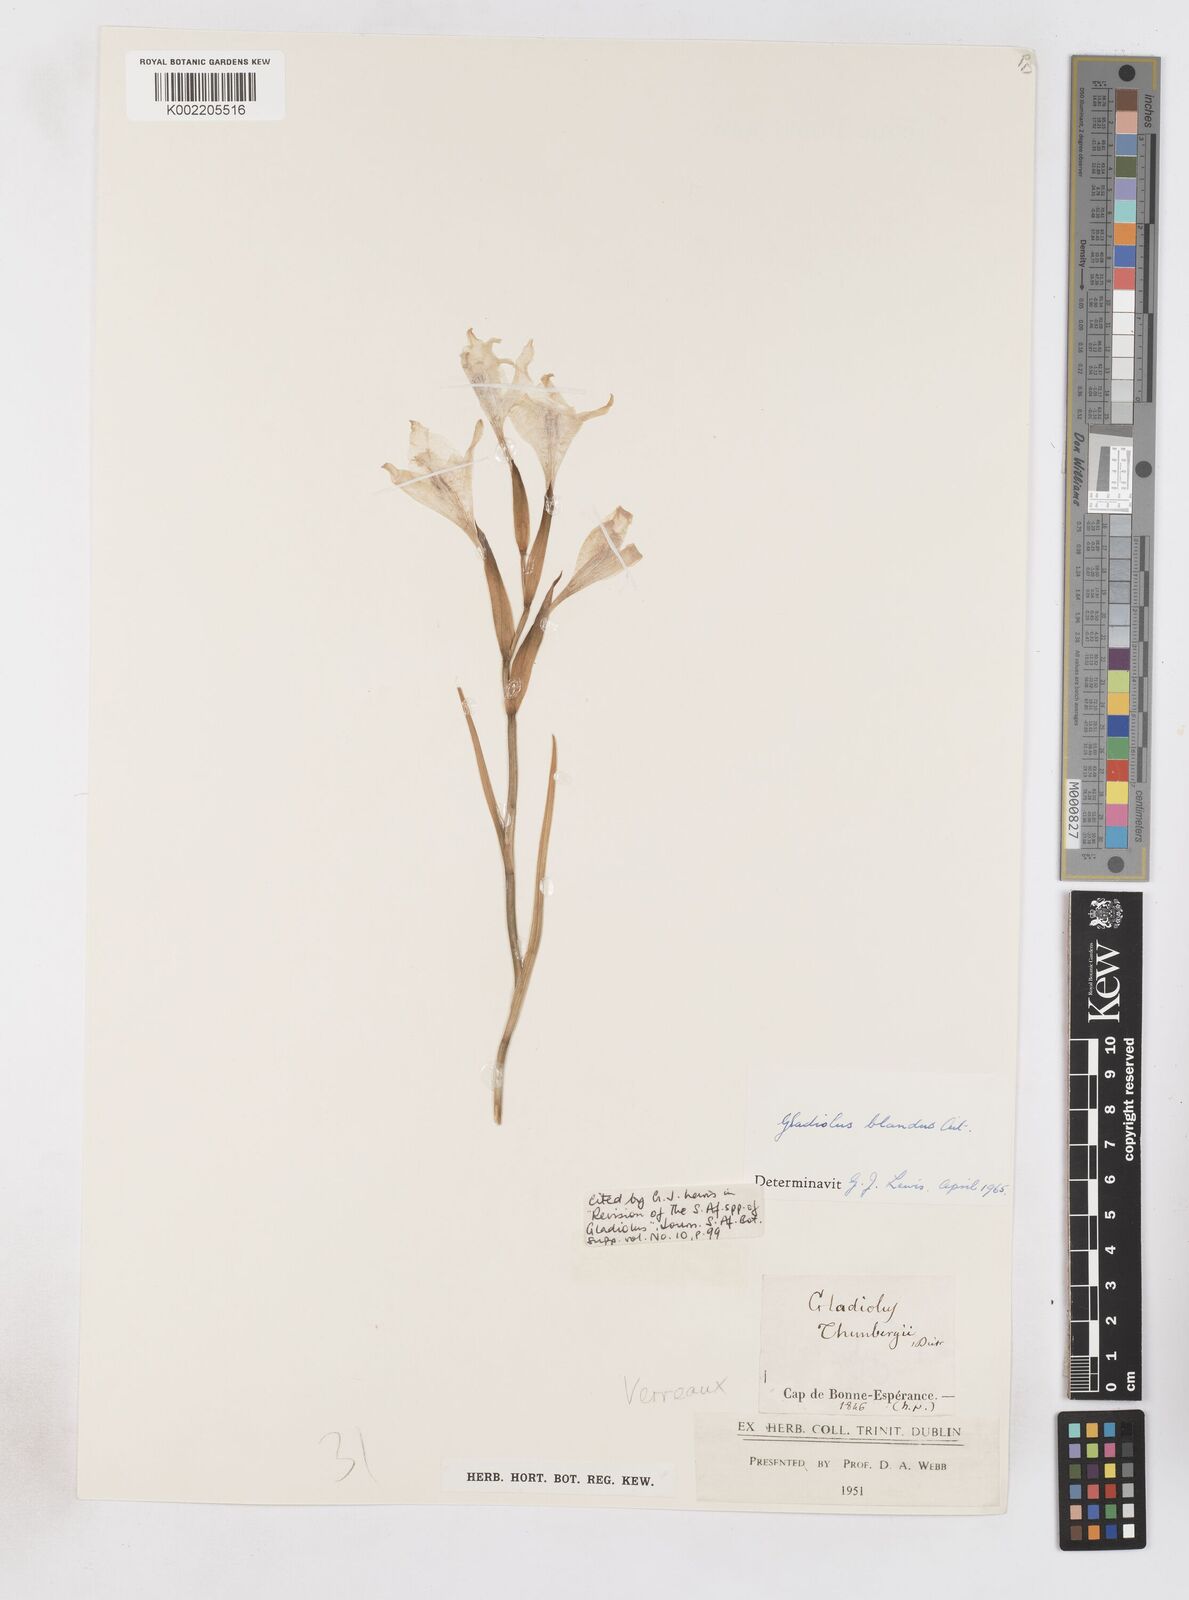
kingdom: Plantae
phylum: Tracheophyta
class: Liliopsida
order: Asparagales
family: Iridaceae
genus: Gladiolus
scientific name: Gladiolus carneus
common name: Painted-lady
